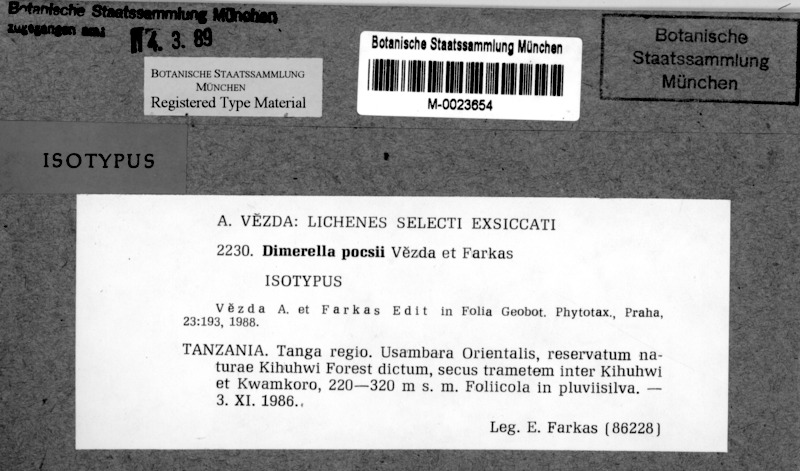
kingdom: Fungi
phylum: Ascomycota
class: Lecanoromycetes
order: Ostropales
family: Coenogoniaceae
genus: Coenogonium
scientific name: Coenogonium pocsii
